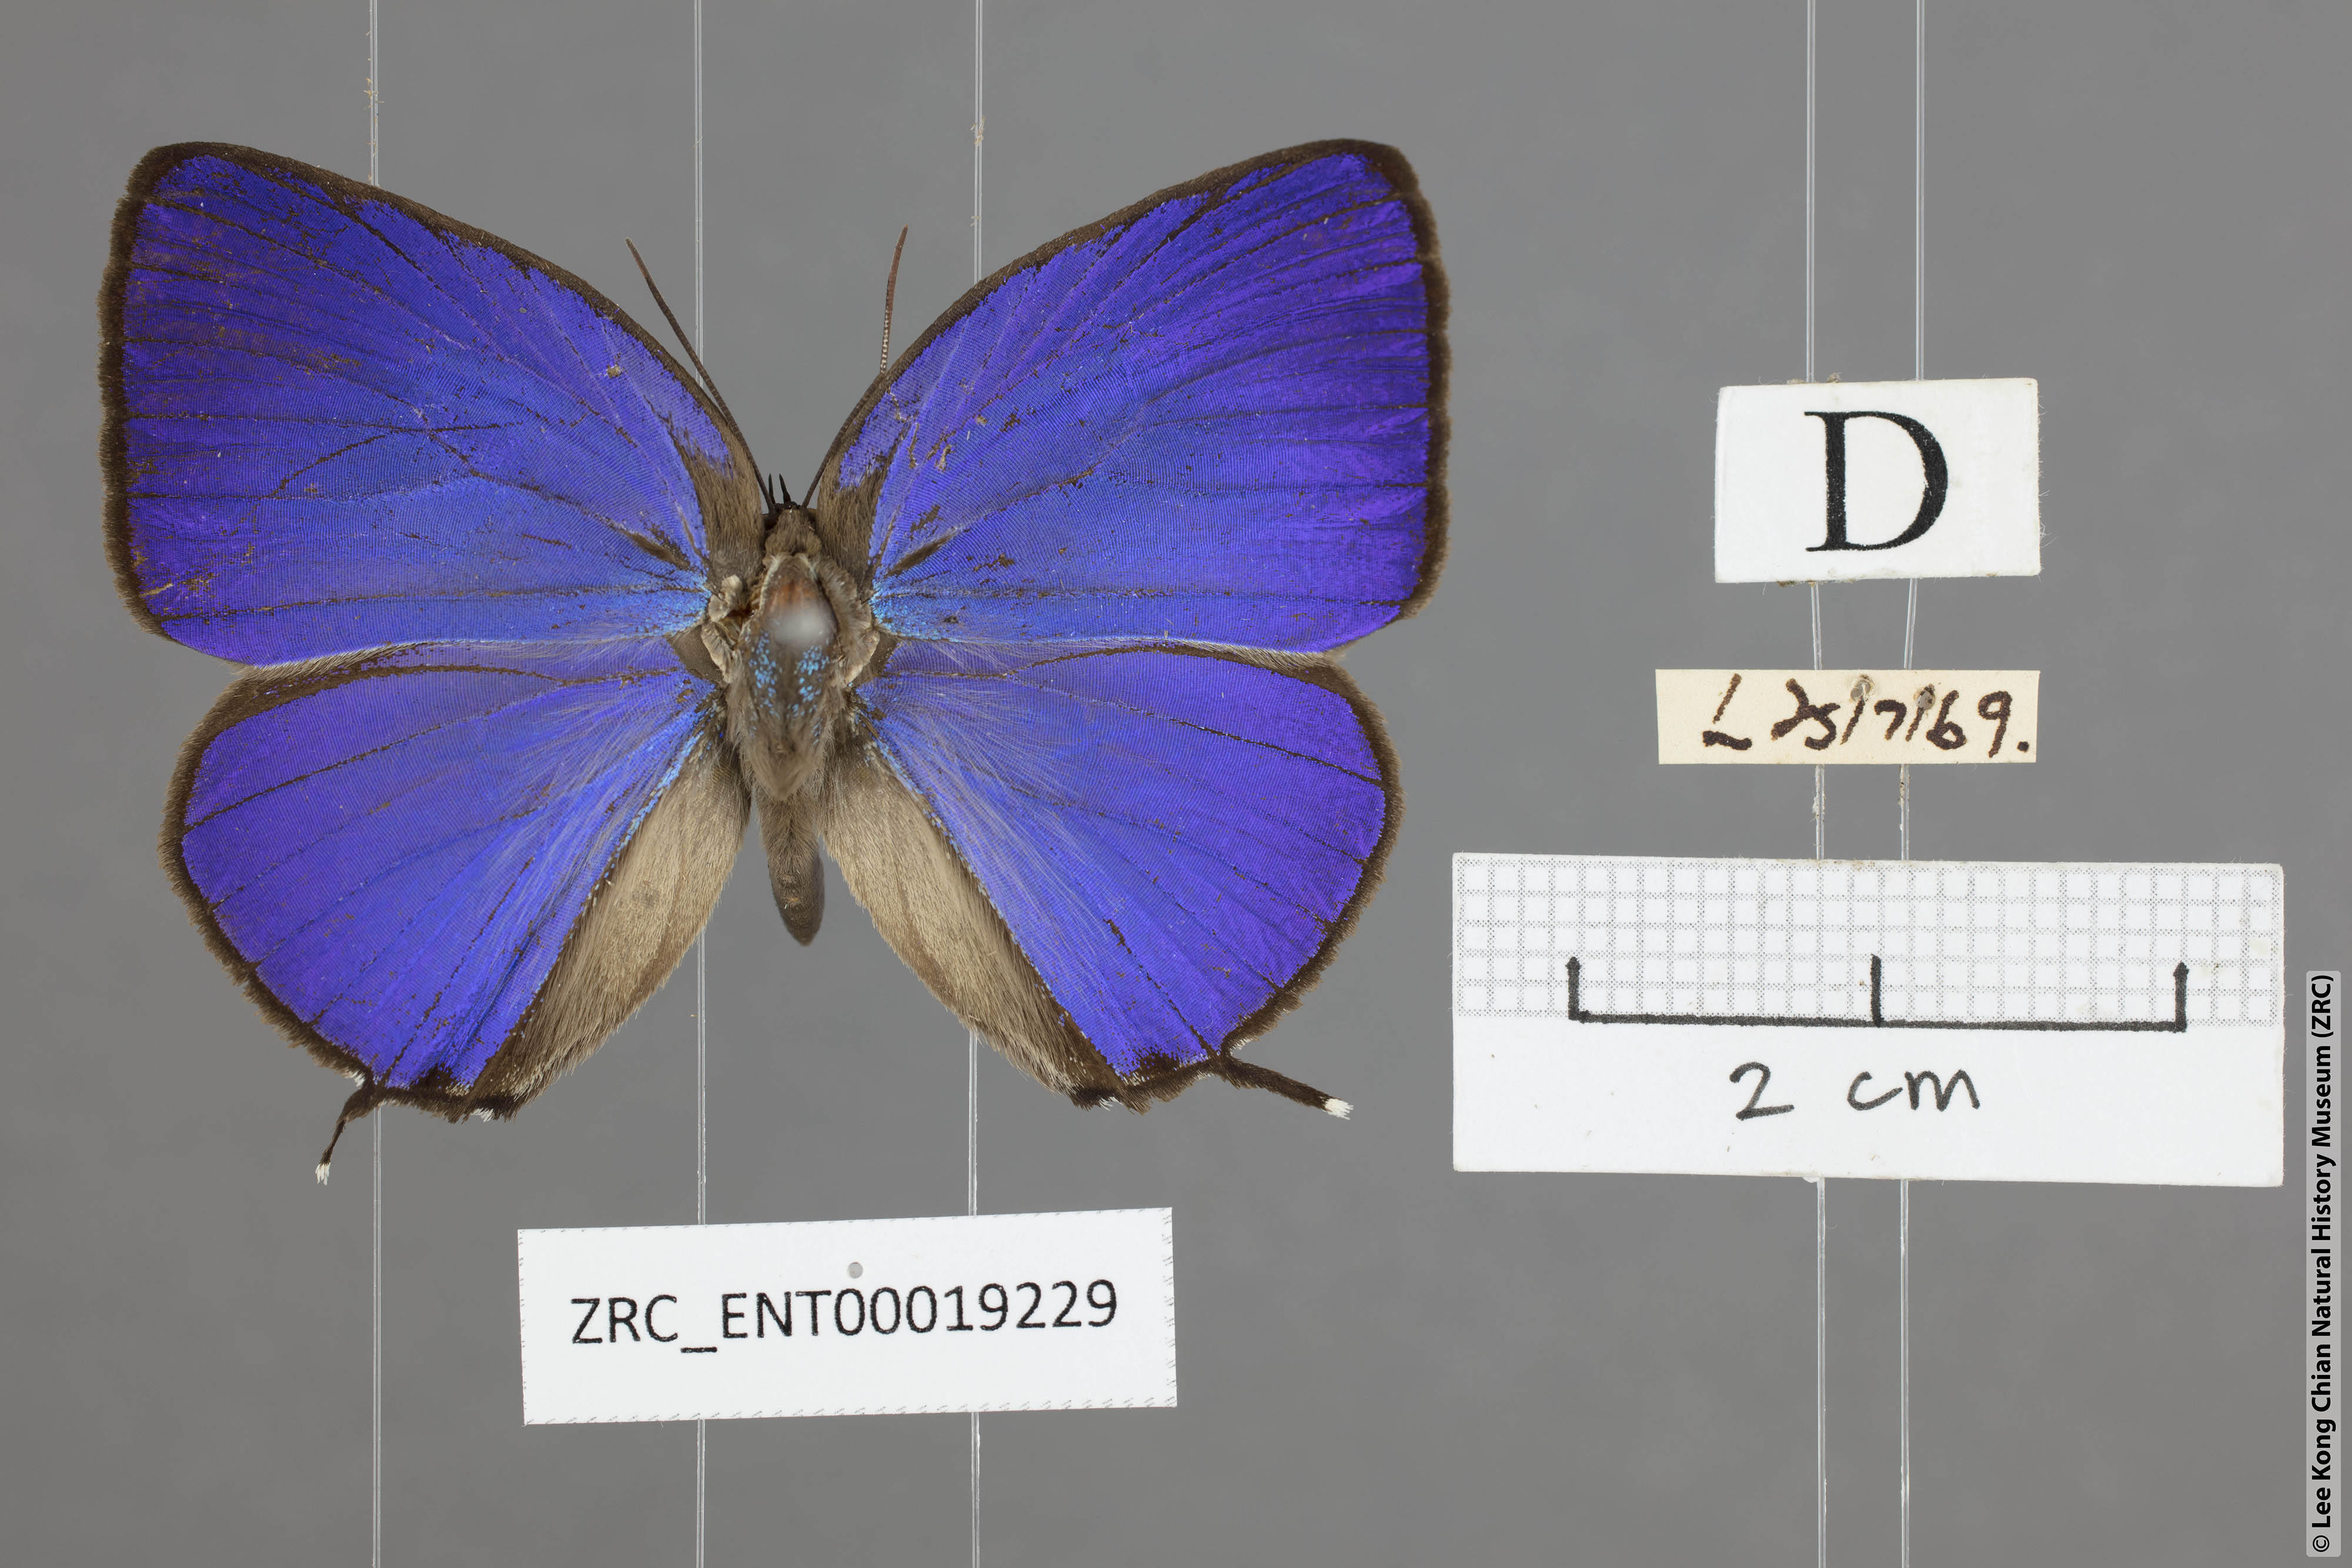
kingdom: Animalia
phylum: Arthropoda
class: Insecta
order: Lepidoptera
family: Lycaenidae
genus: Arhopala
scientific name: Arhopala atosia
